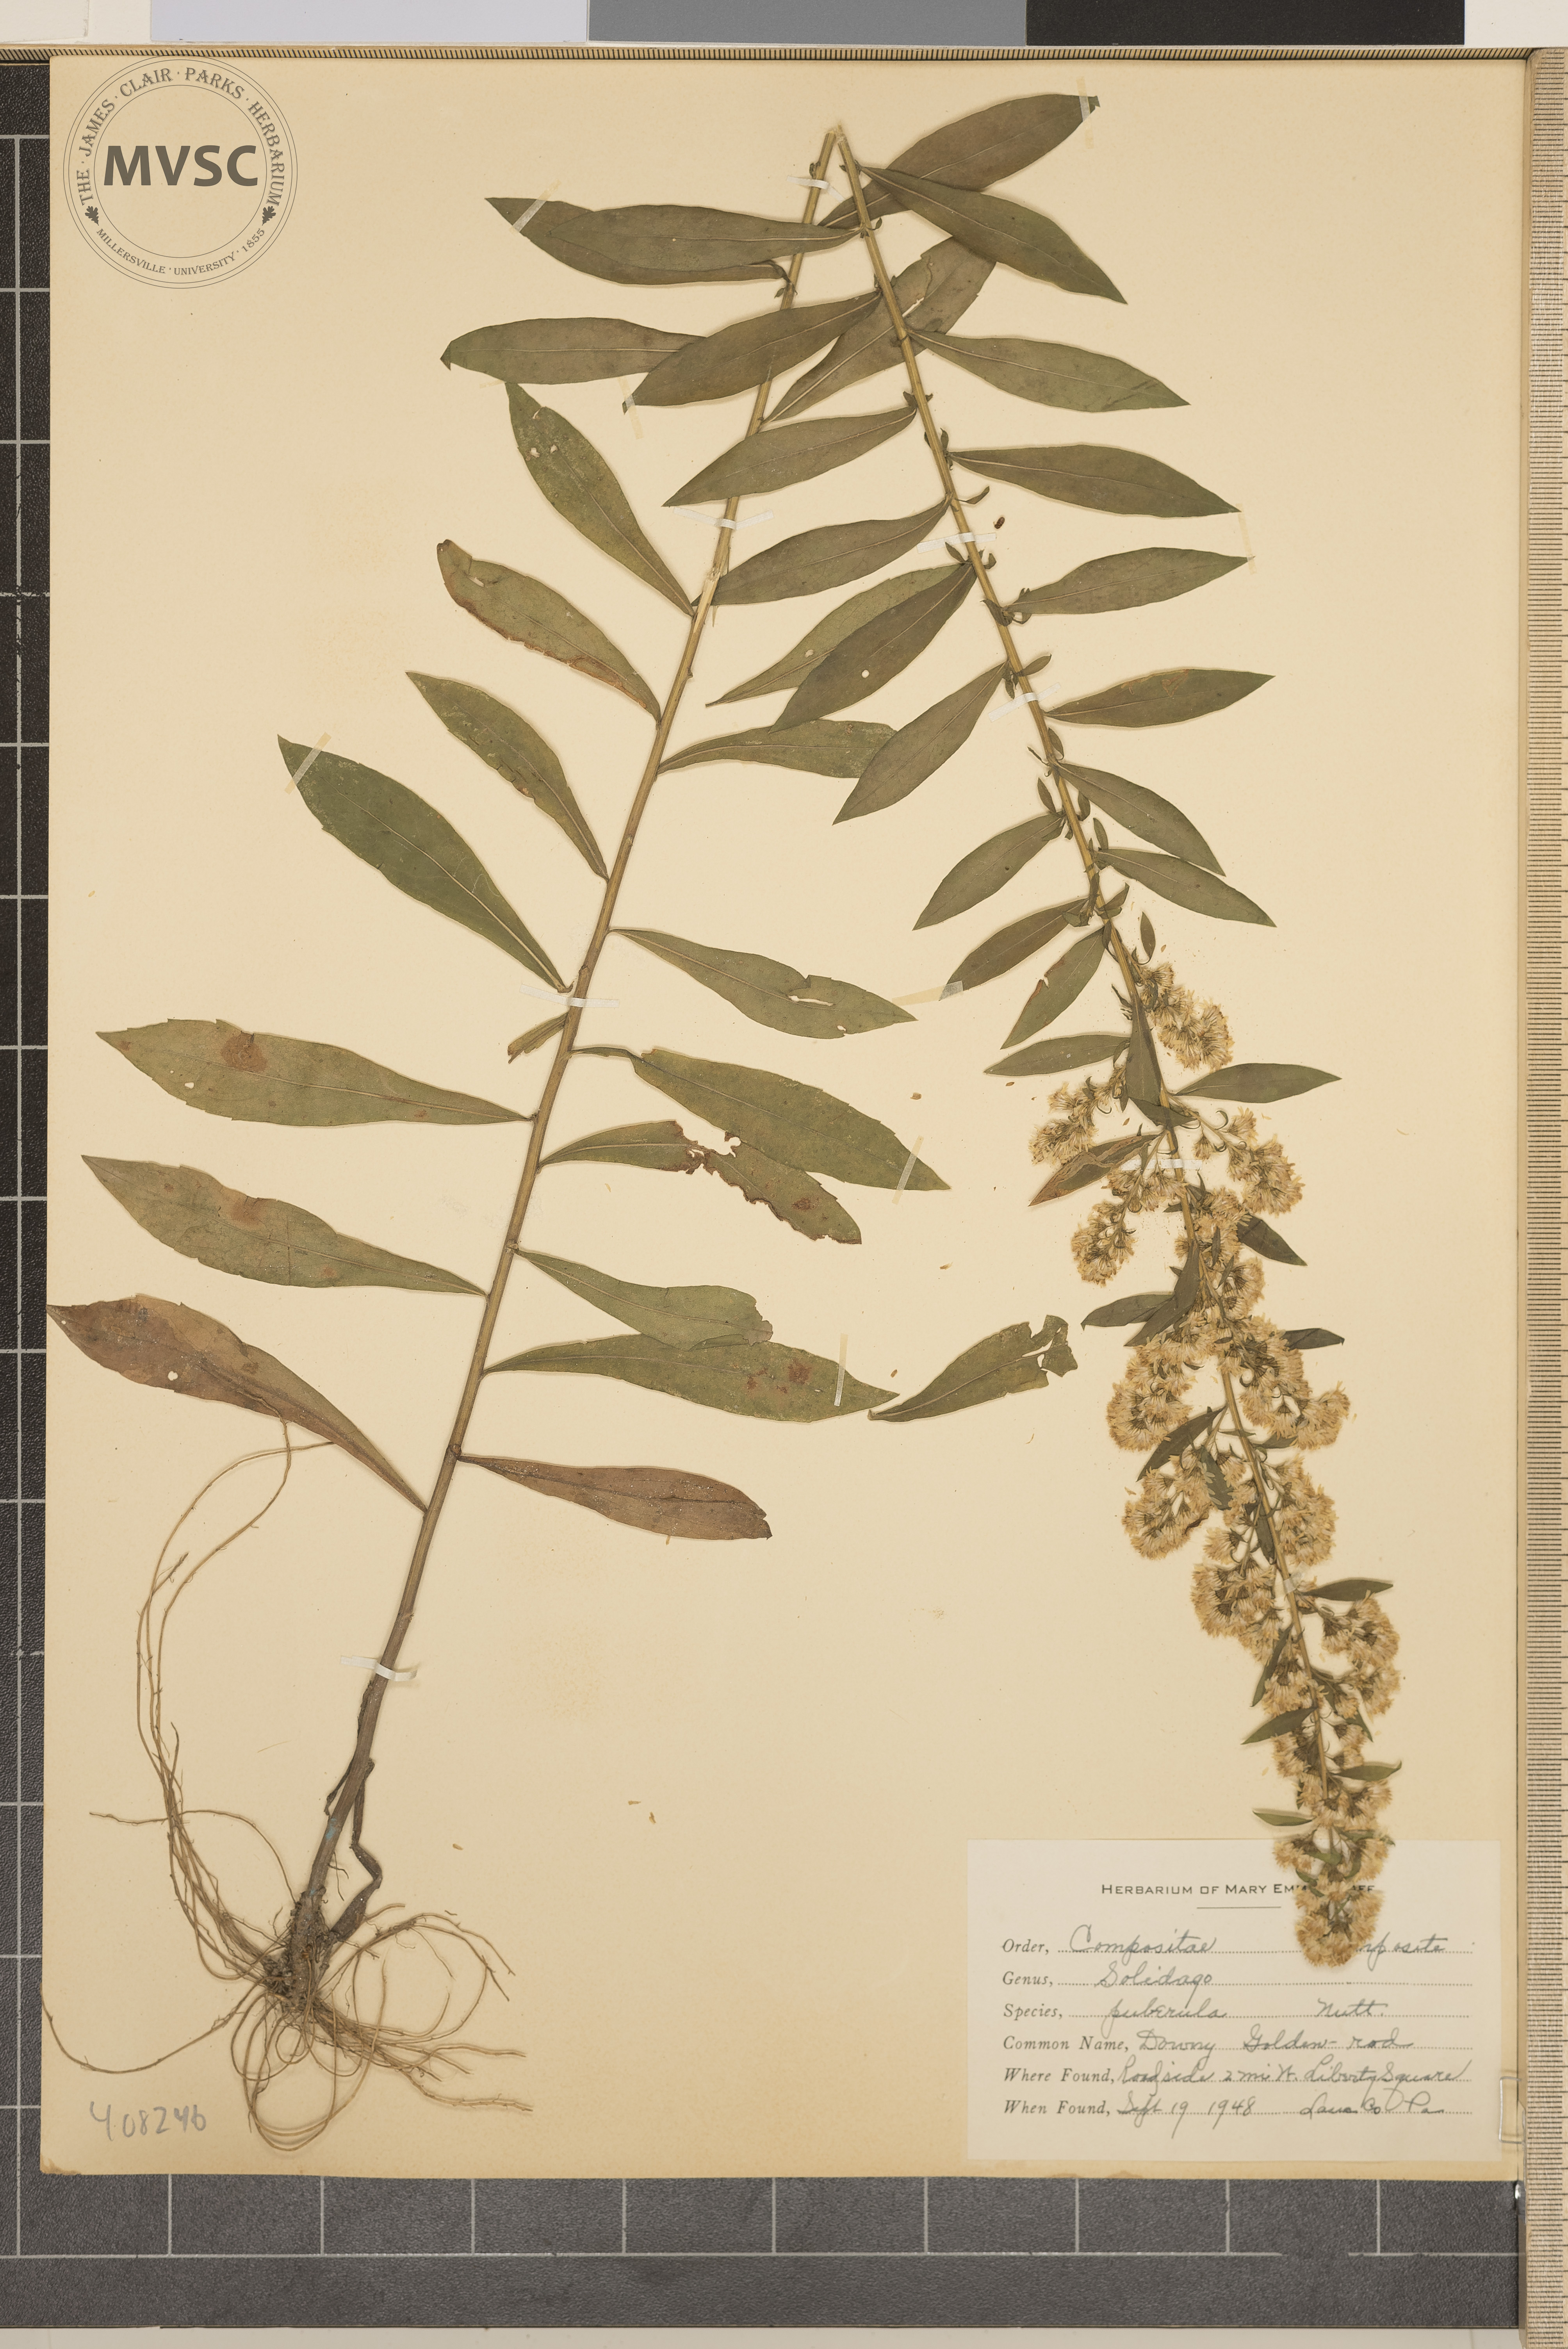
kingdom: Plantae
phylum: Tracheophyta
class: Magnoliopsida
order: Asterales
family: Asteraceae
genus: Solidago
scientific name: Solidago puberula
